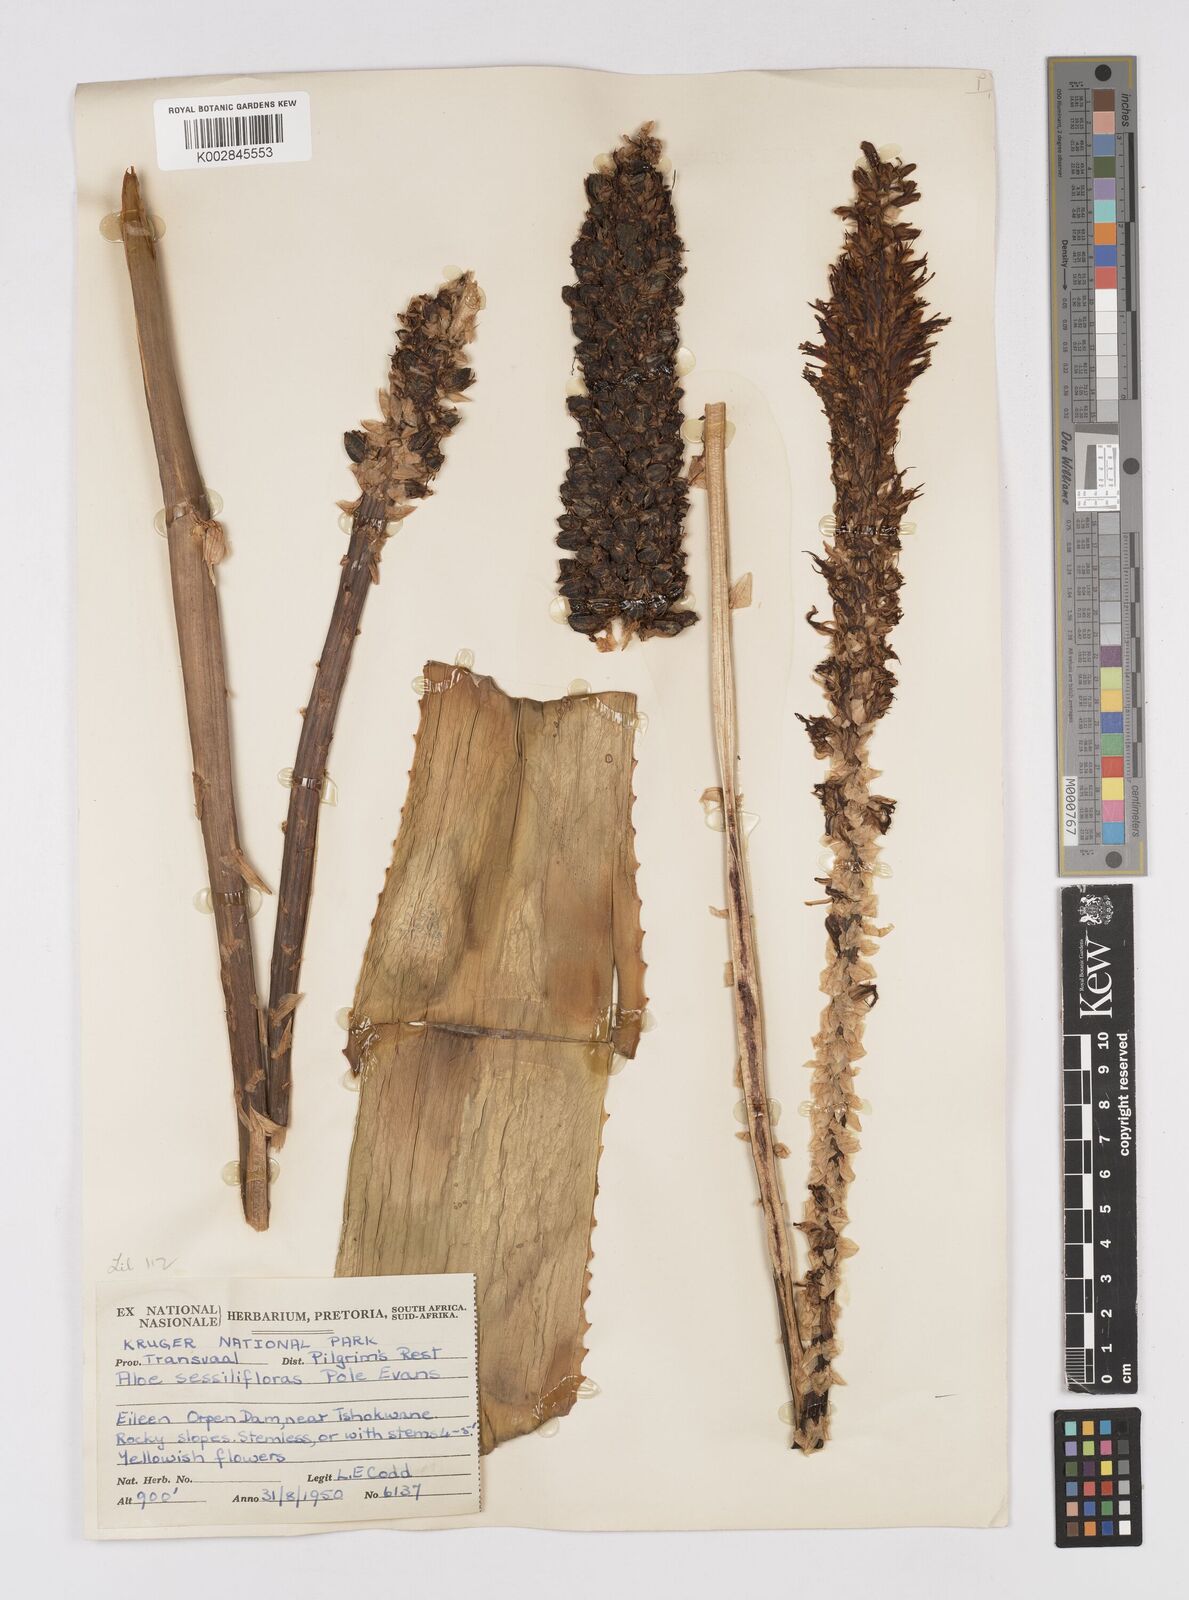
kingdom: Plantae
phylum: Tracheophyta
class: Liliopsida
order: Asparagales
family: Asphodelaceae
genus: Aloe
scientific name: Aloe spicata
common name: Gazaland aloe
